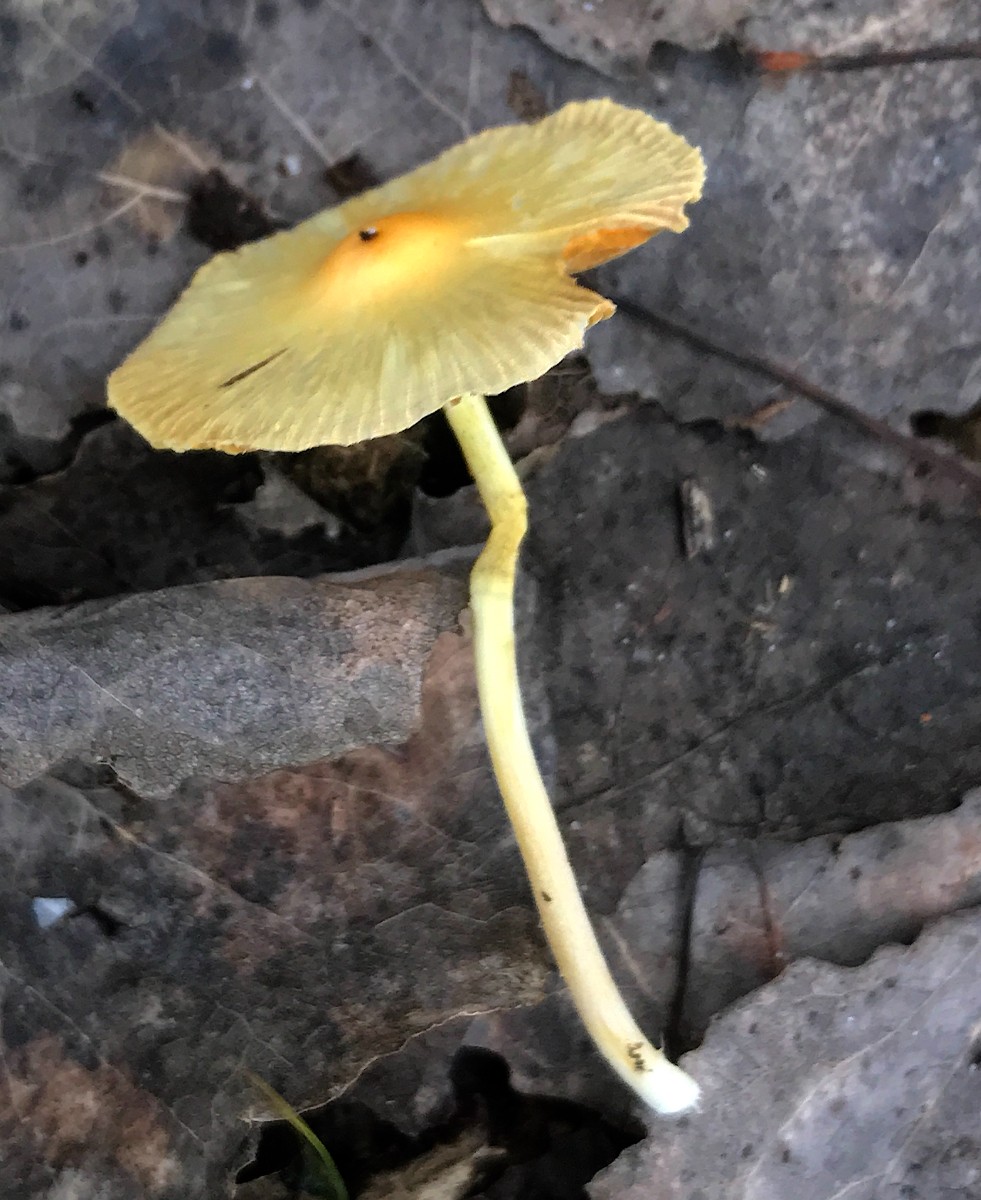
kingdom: Fungi
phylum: Basidiomycota
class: Agaricomycetes
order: Agaricales
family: Bolbitiaceae
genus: Bolbitius
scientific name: Bolbitius titubans
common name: almindelig gulhat
